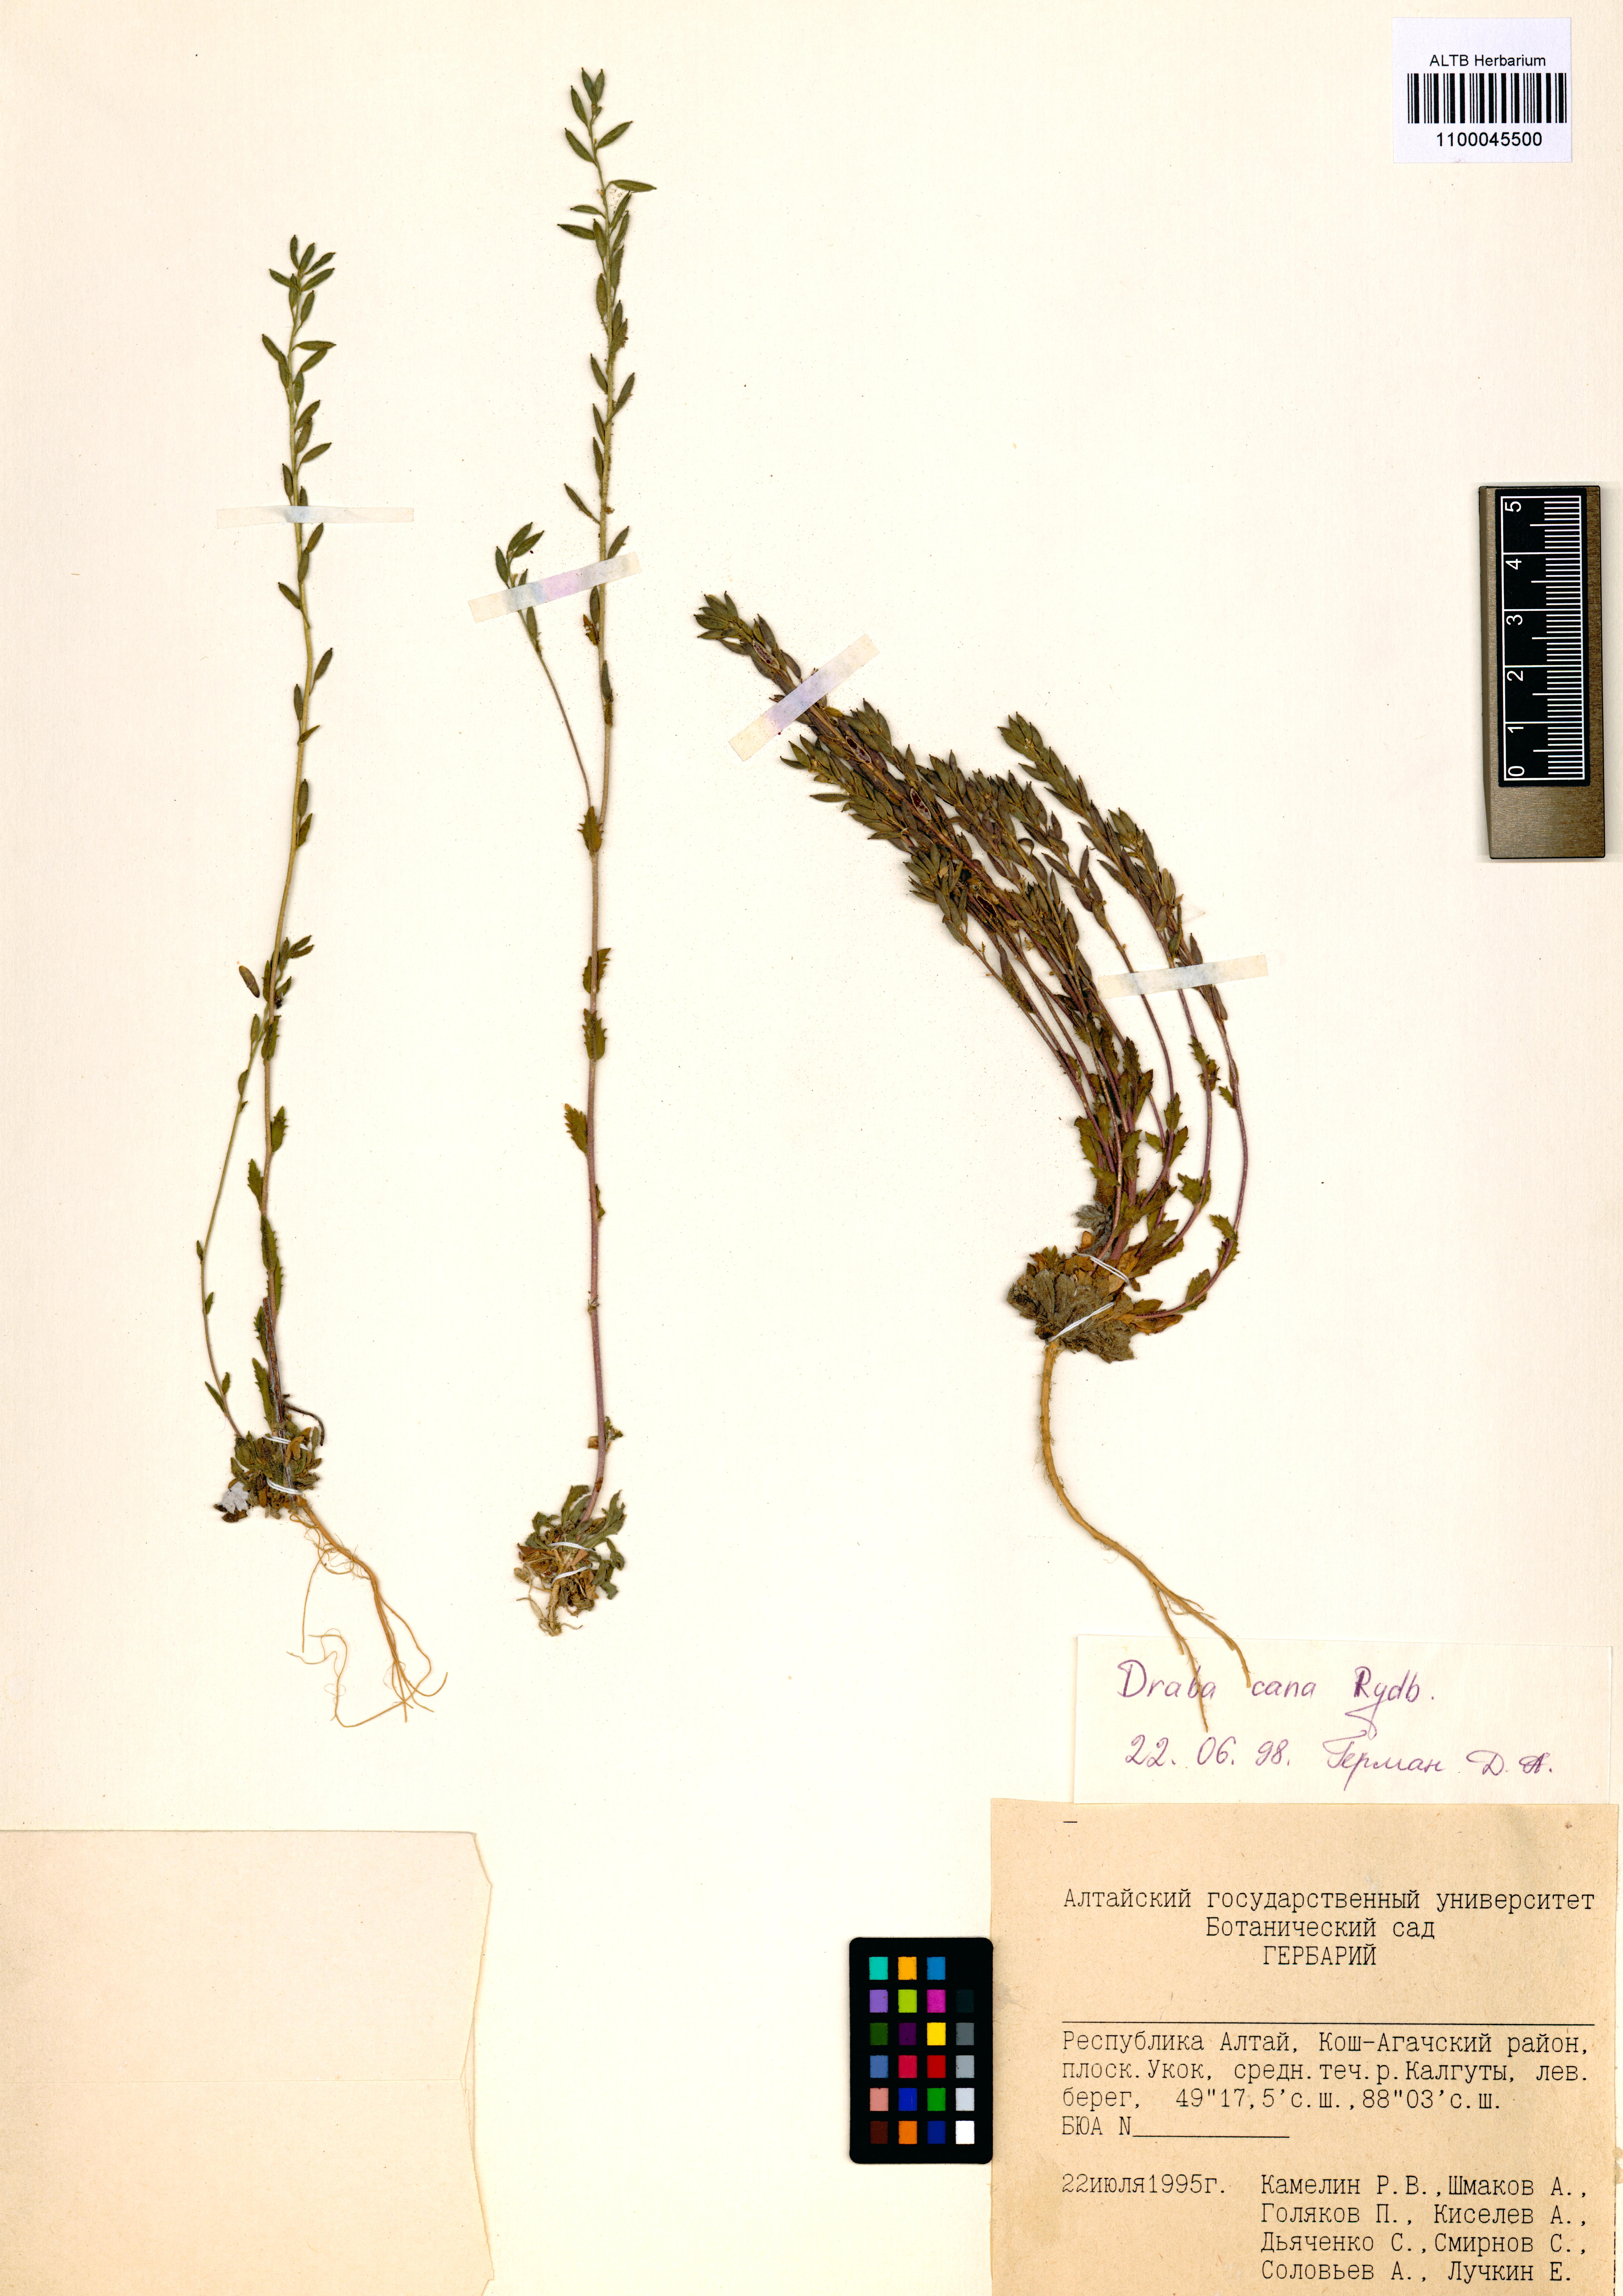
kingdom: Plantae
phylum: Tracheophyta
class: Magnoliopsida
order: Brassicales
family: Brassicaceae
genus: Draba
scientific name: Draba cana
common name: Hoary draba
